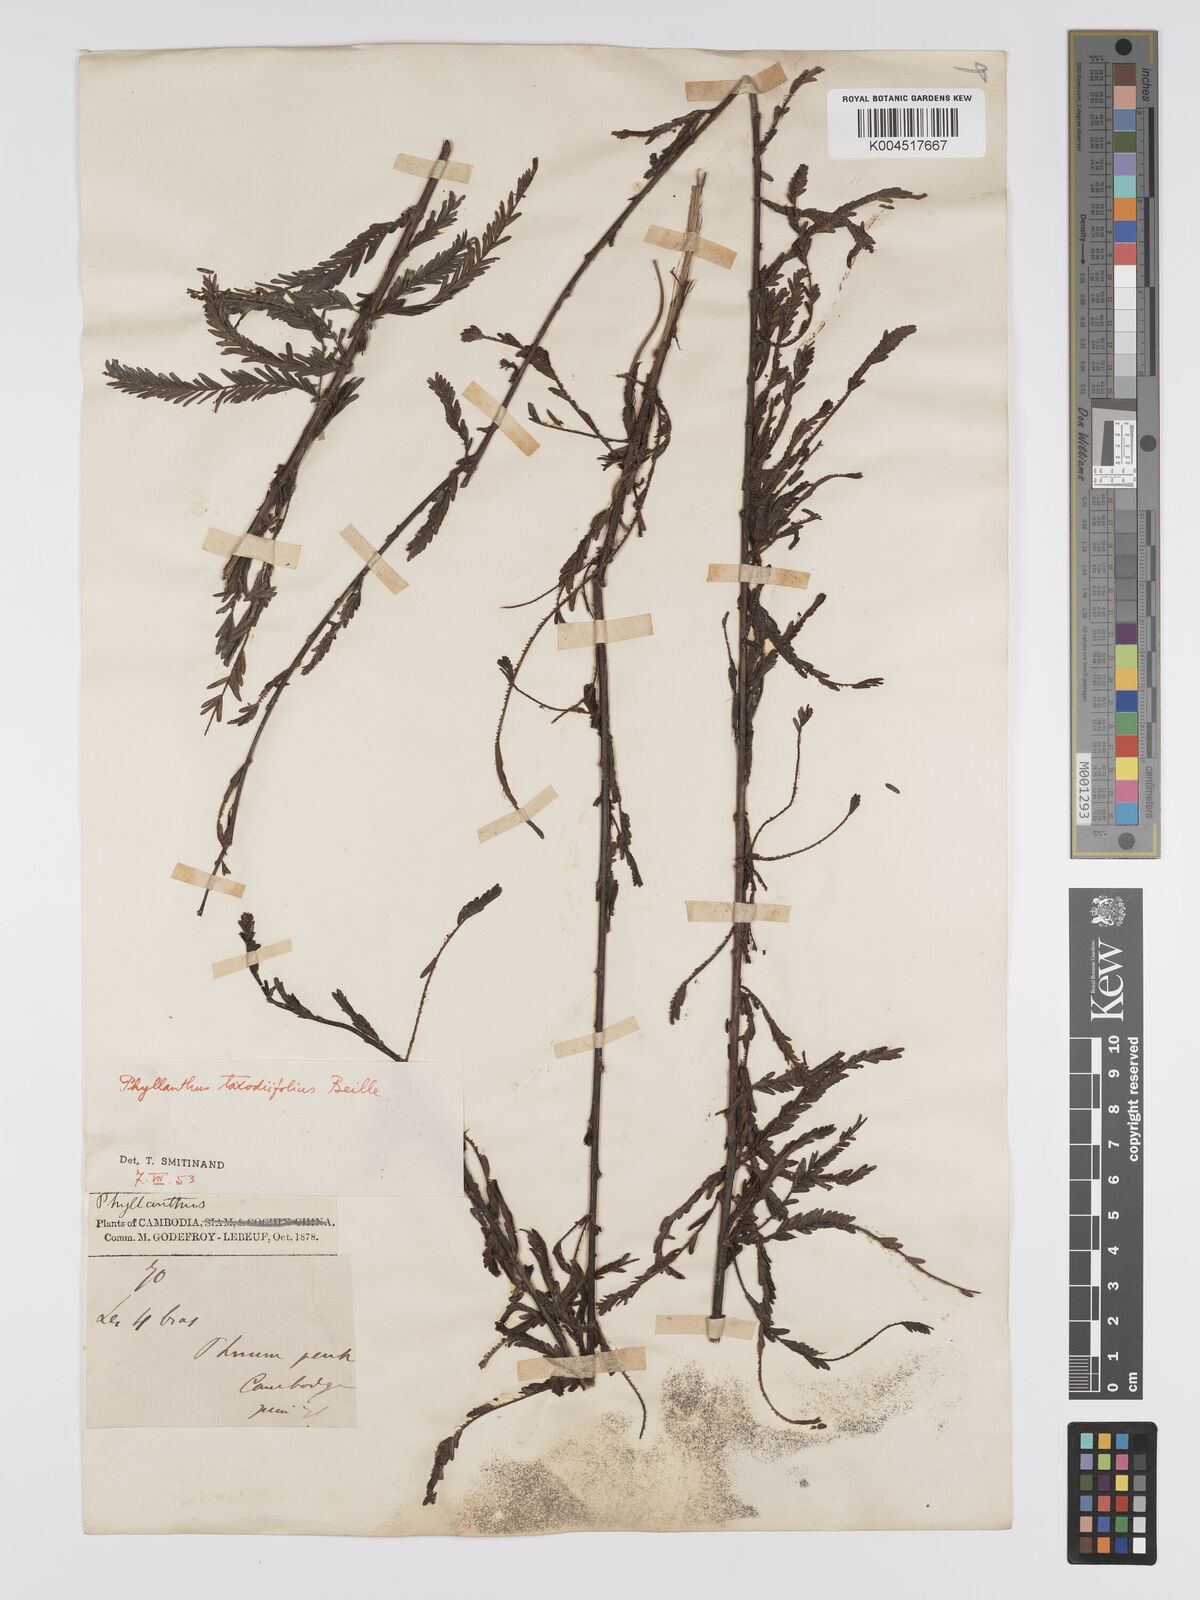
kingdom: Plantae
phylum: Tracheophyta
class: Magnoliopsida
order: Malpighiales
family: Phyllanthaceae
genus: Phyllanthus
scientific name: Phyllanthus taxodiifolius
